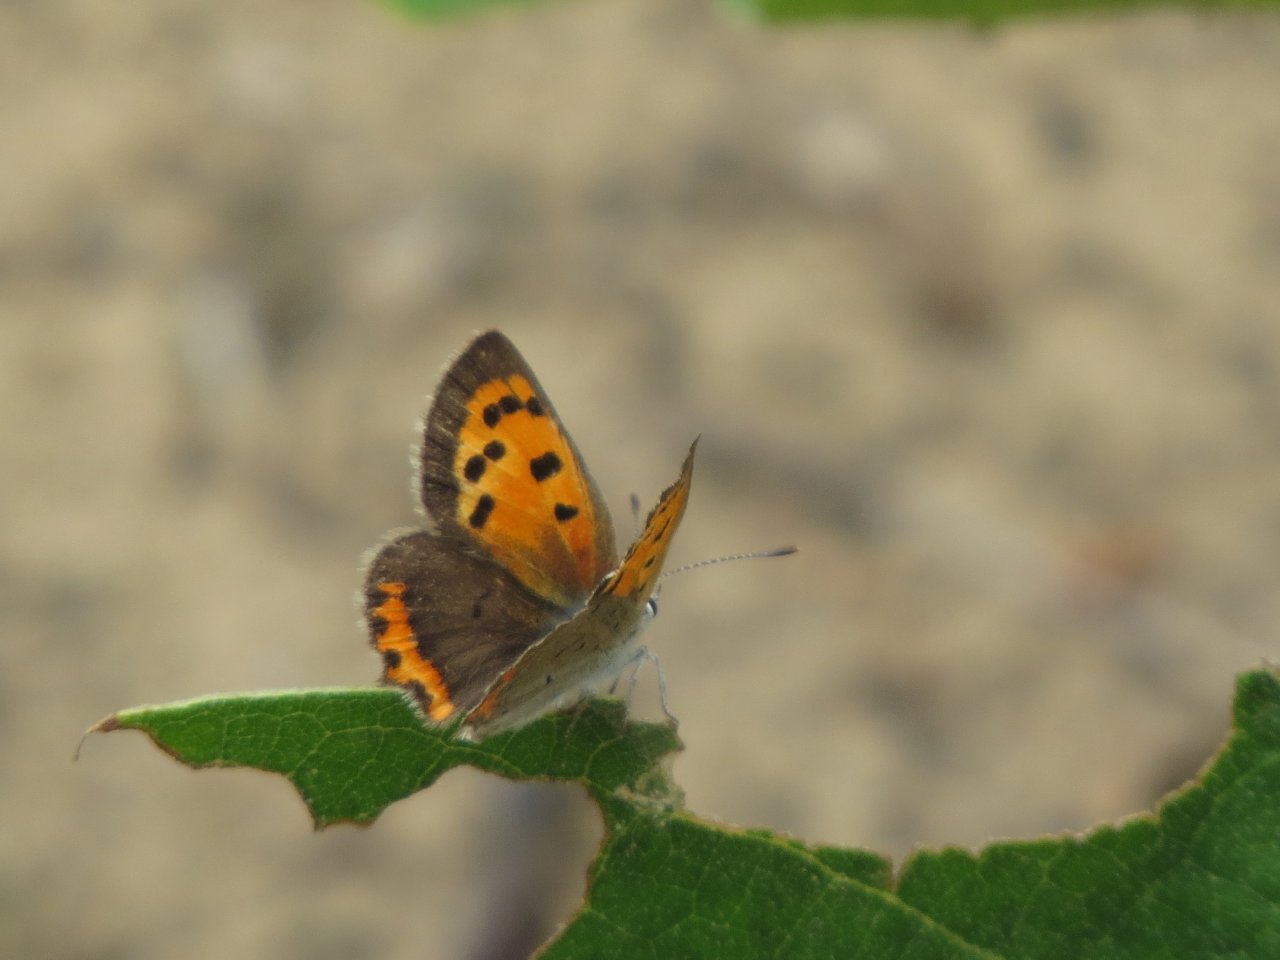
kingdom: Animalia
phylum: Arthropoda
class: Insecta
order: Lepidoptera
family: Lycaenidae
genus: Lycaena
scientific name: Lycaena phlaeas
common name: American Copper
